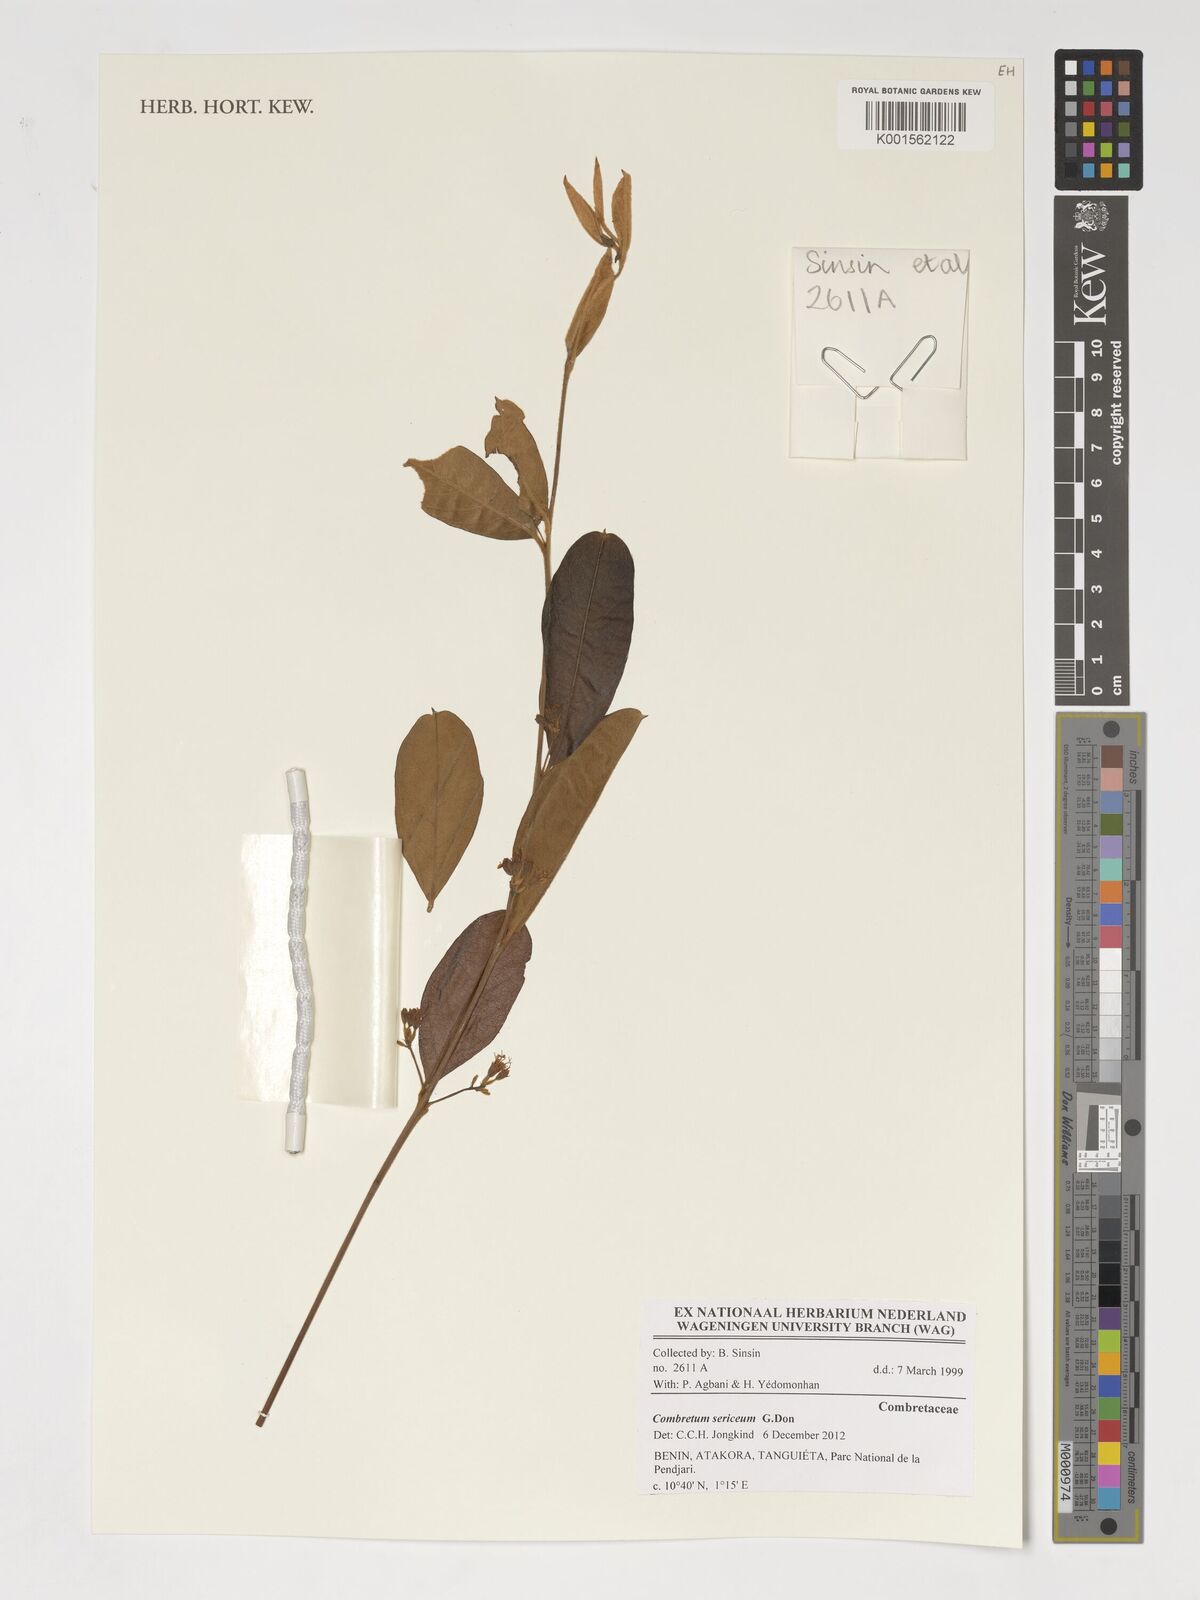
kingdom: Plantae
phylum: Tracheophyta
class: Magnoliopsida
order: Myrtales
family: Combretaceae
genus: Combretum
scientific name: Combretum sericeum
